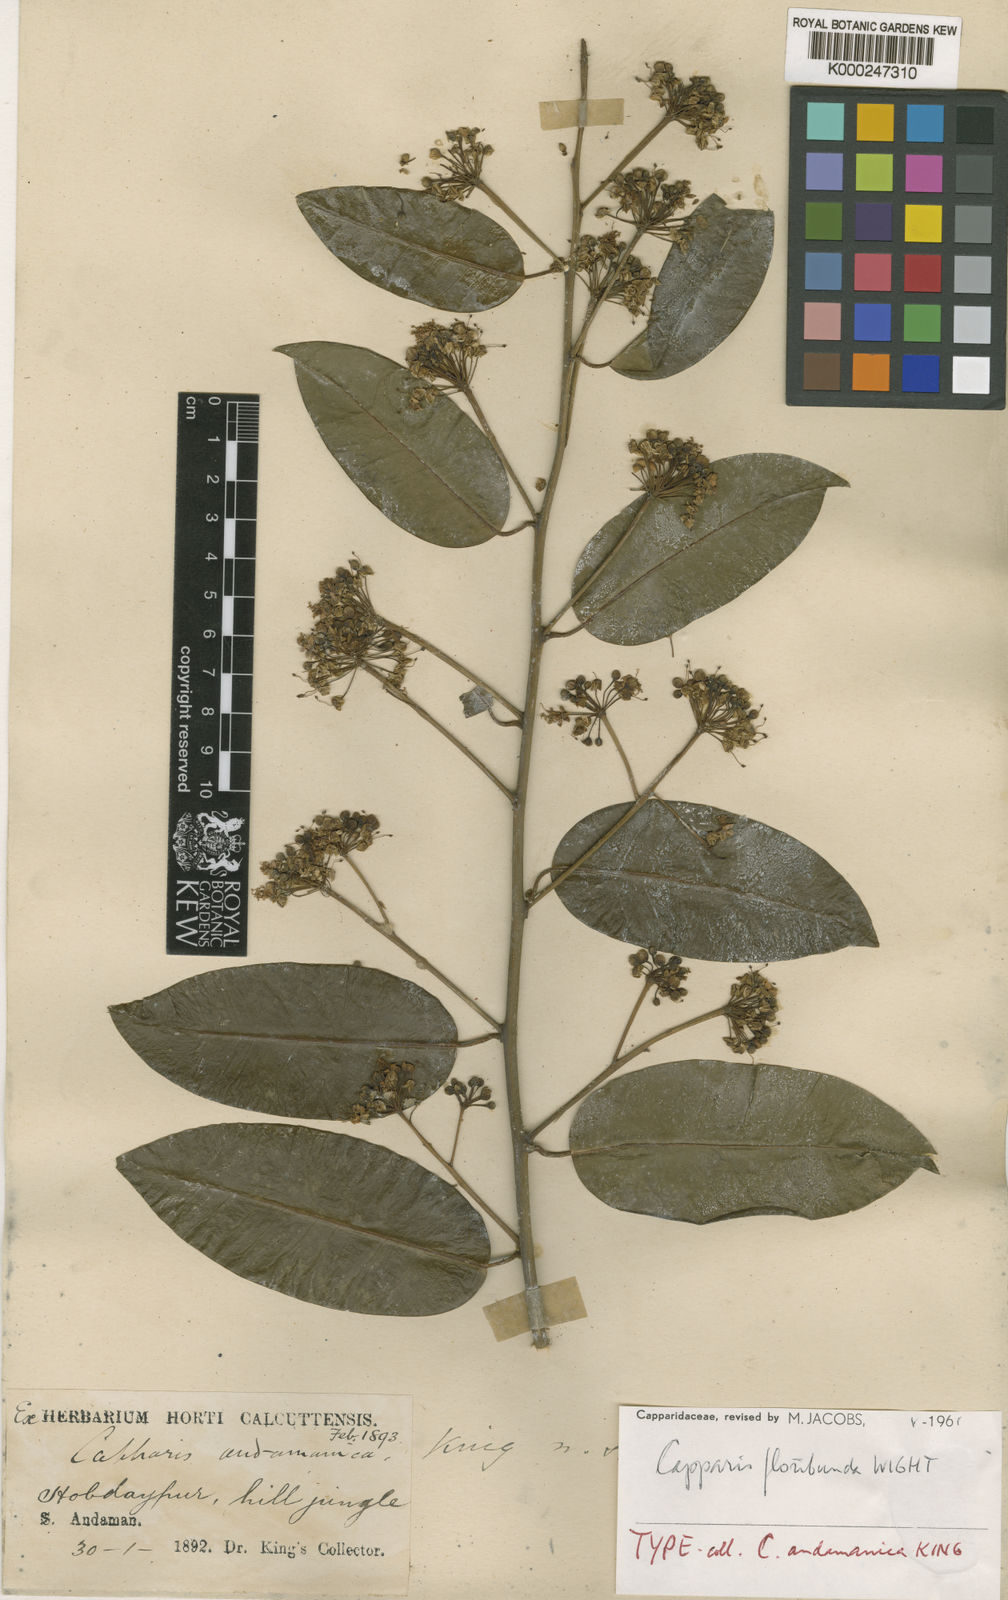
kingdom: Plantae
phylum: Tracheophyta
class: Magnoliopsida
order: Brassicales
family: Capparaceae
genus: Capparis
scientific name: Capparis floribunda
